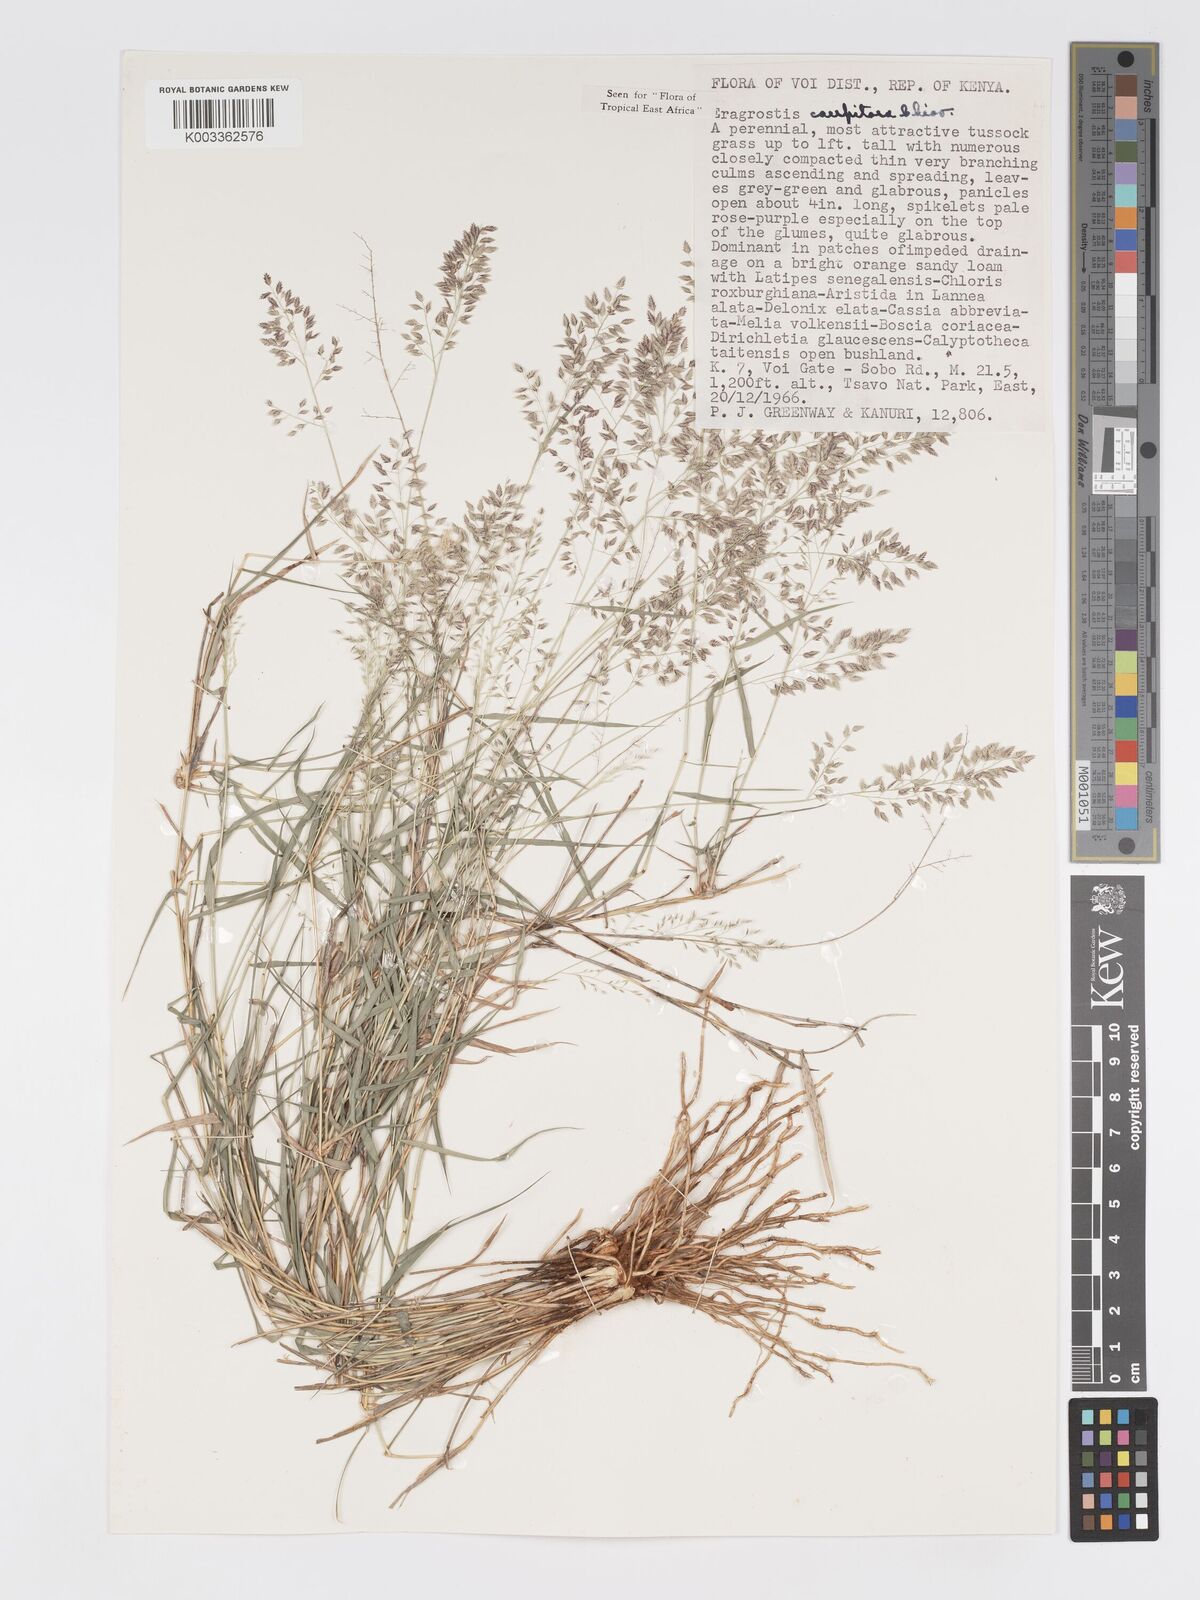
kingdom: Plantae
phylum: Tracheophyta
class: Liliopsida
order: Poales
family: Poaceae
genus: Eragrostis
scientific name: Eragrostis caespitosa
